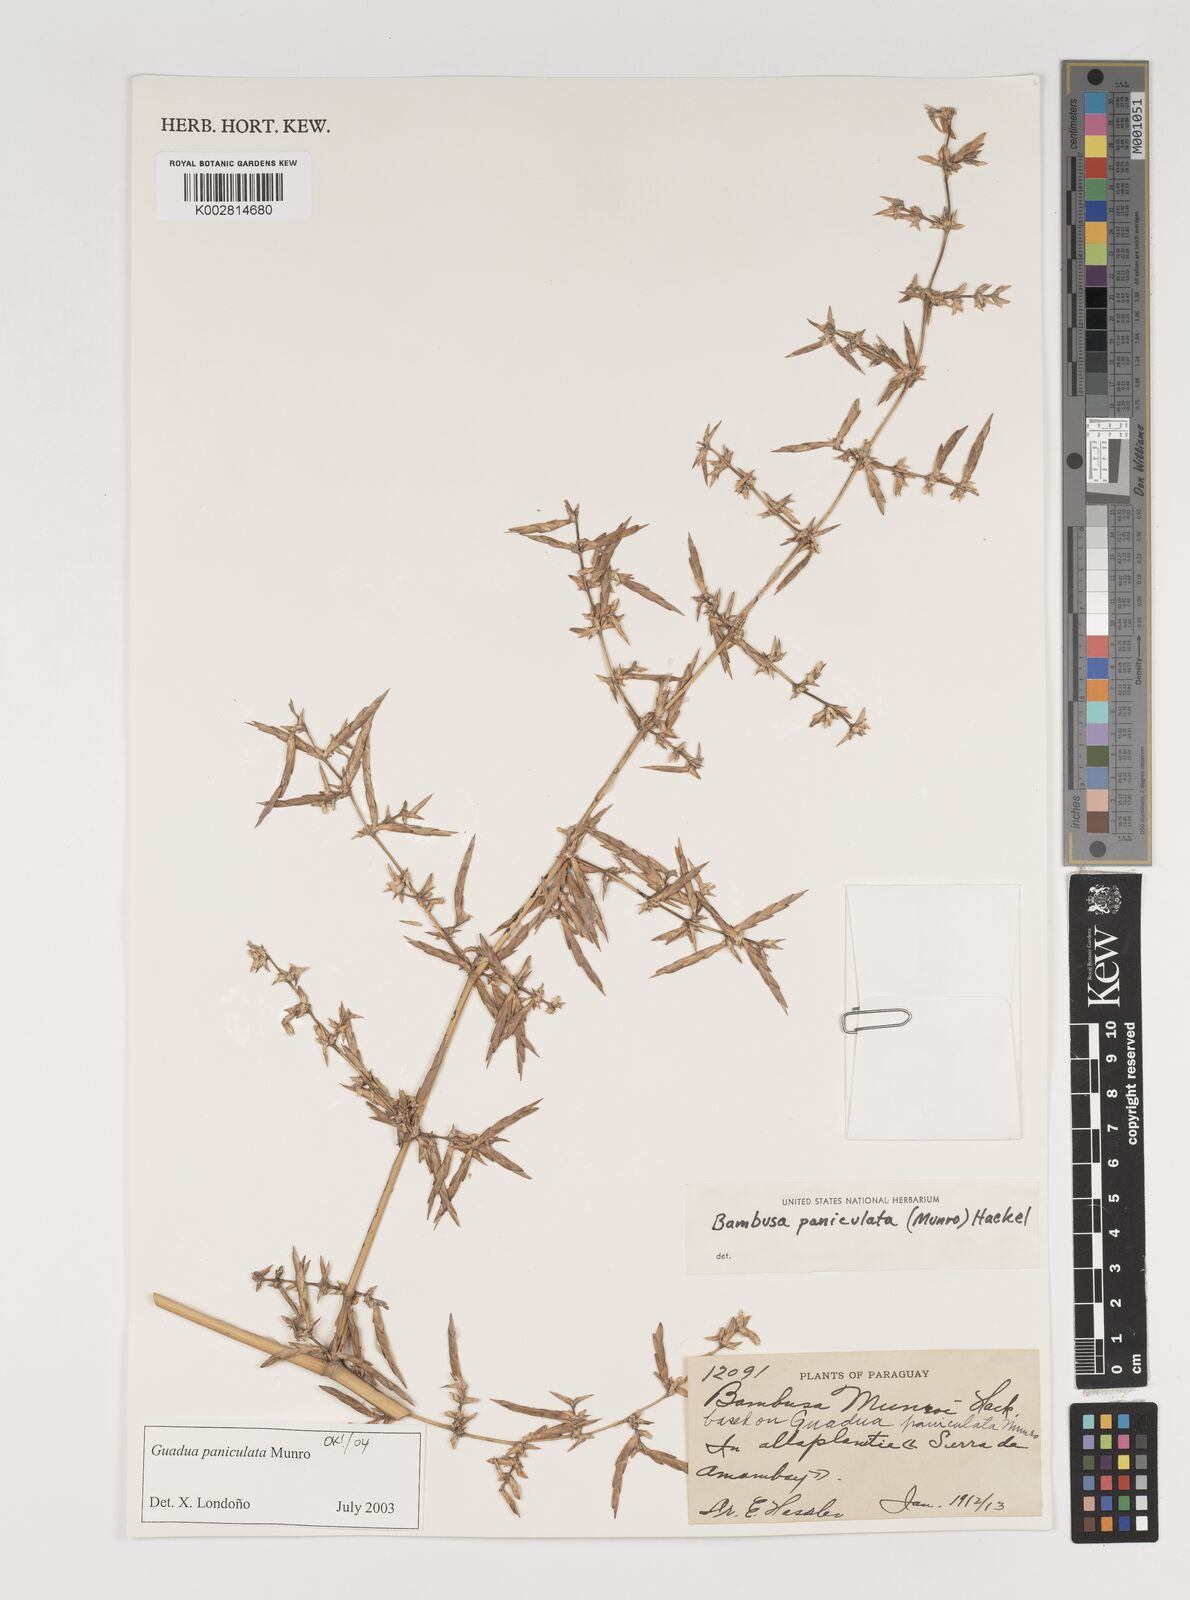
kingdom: Plantae
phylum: Tracheophyta
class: Liliopsida
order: Poales
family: Poaceae
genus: Guadua
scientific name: Guadua paniculata
